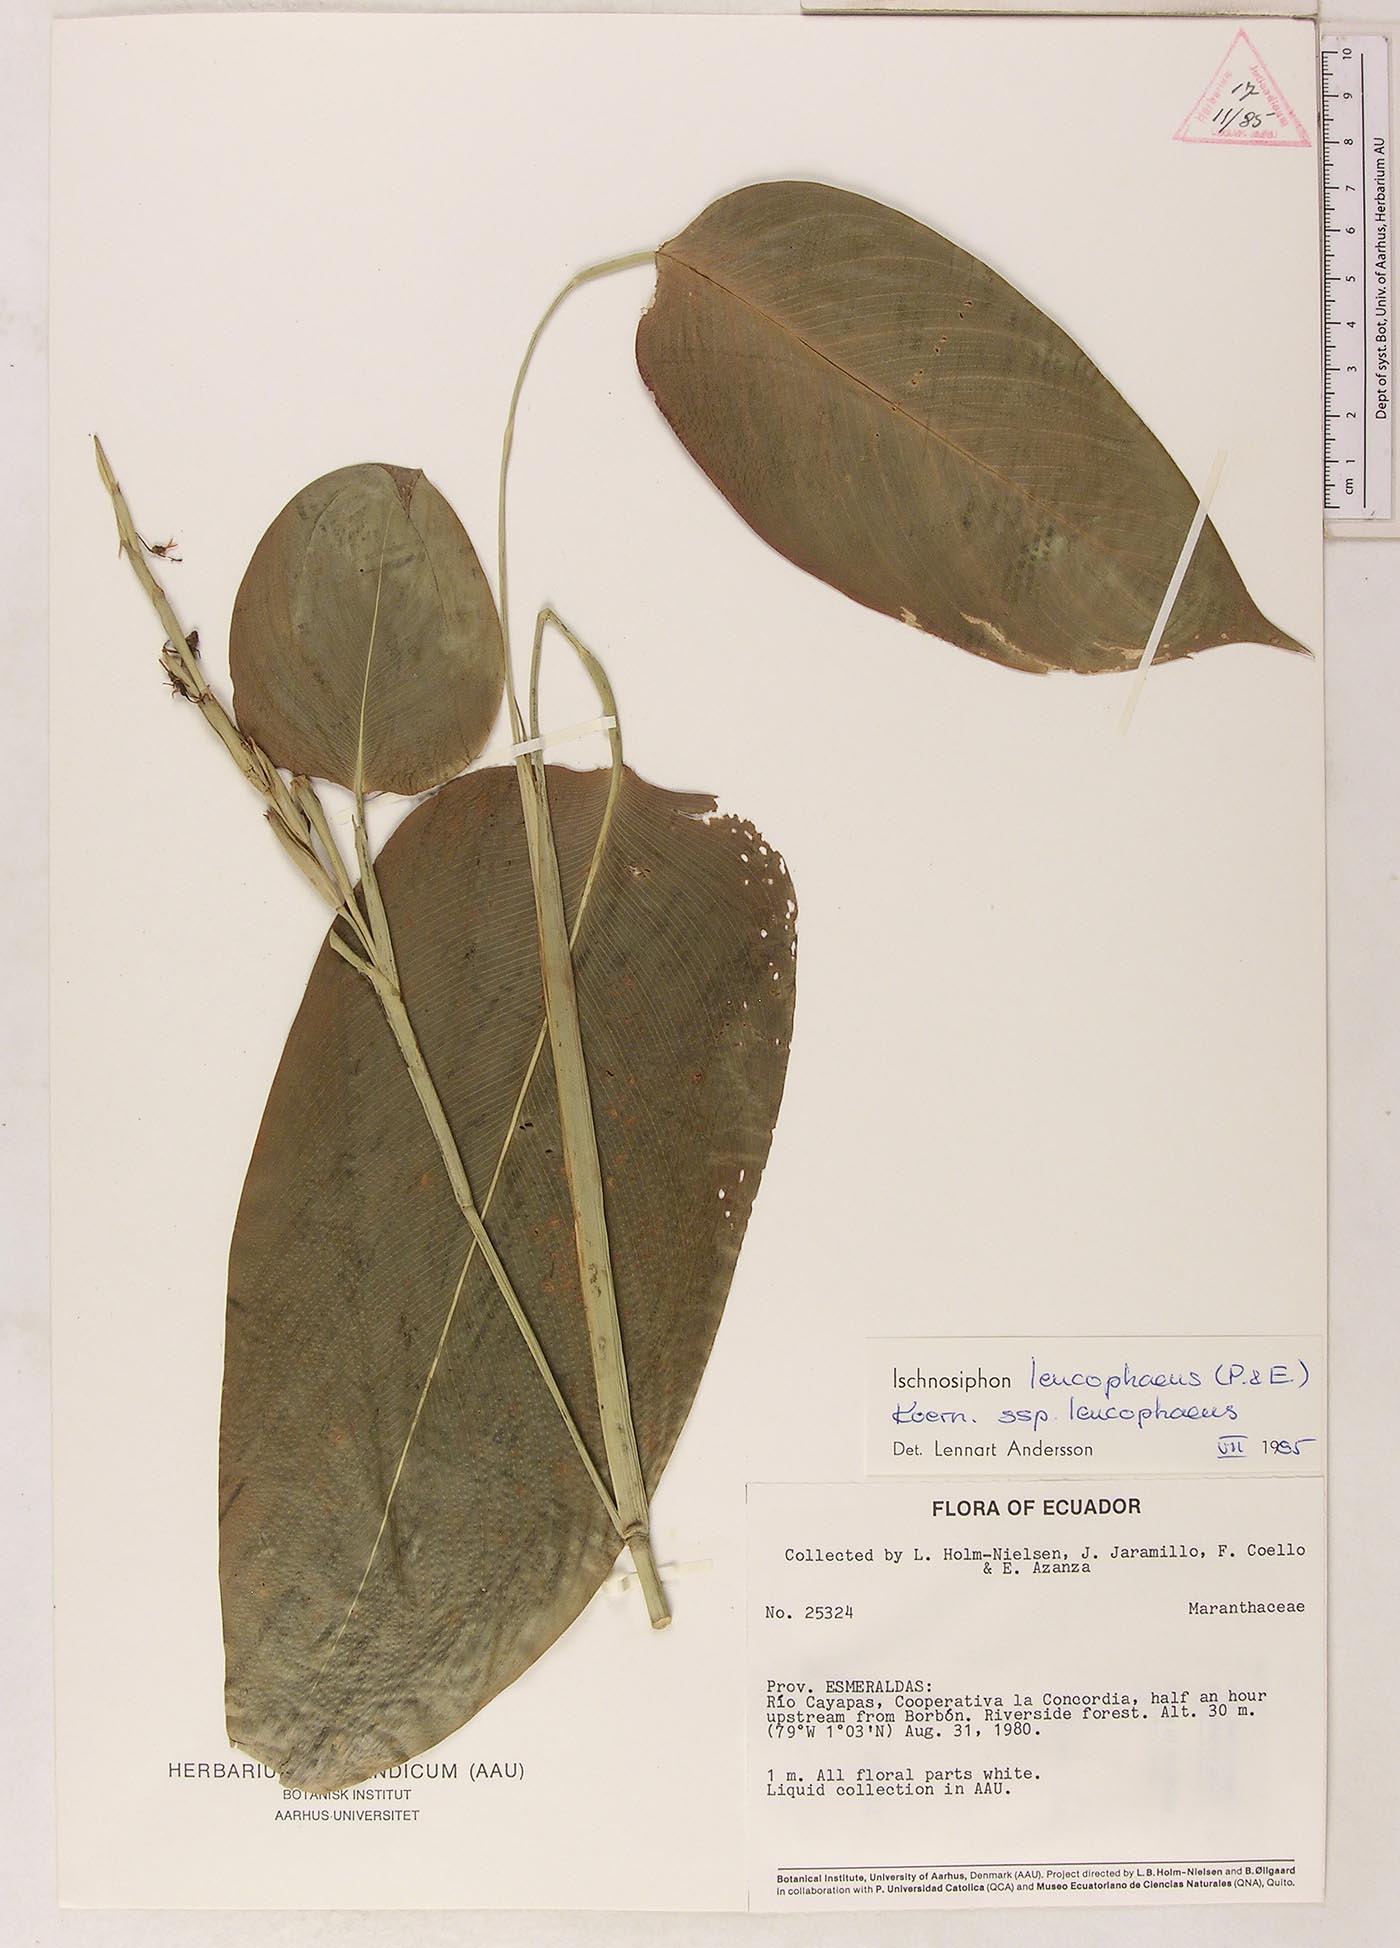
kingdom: Plantae
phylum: Tracheophyta
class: Liliopsida
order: Zingiberales
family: Marantaceae
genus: Ischnosiphon
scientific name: Ischnosiphon leucophaeus
